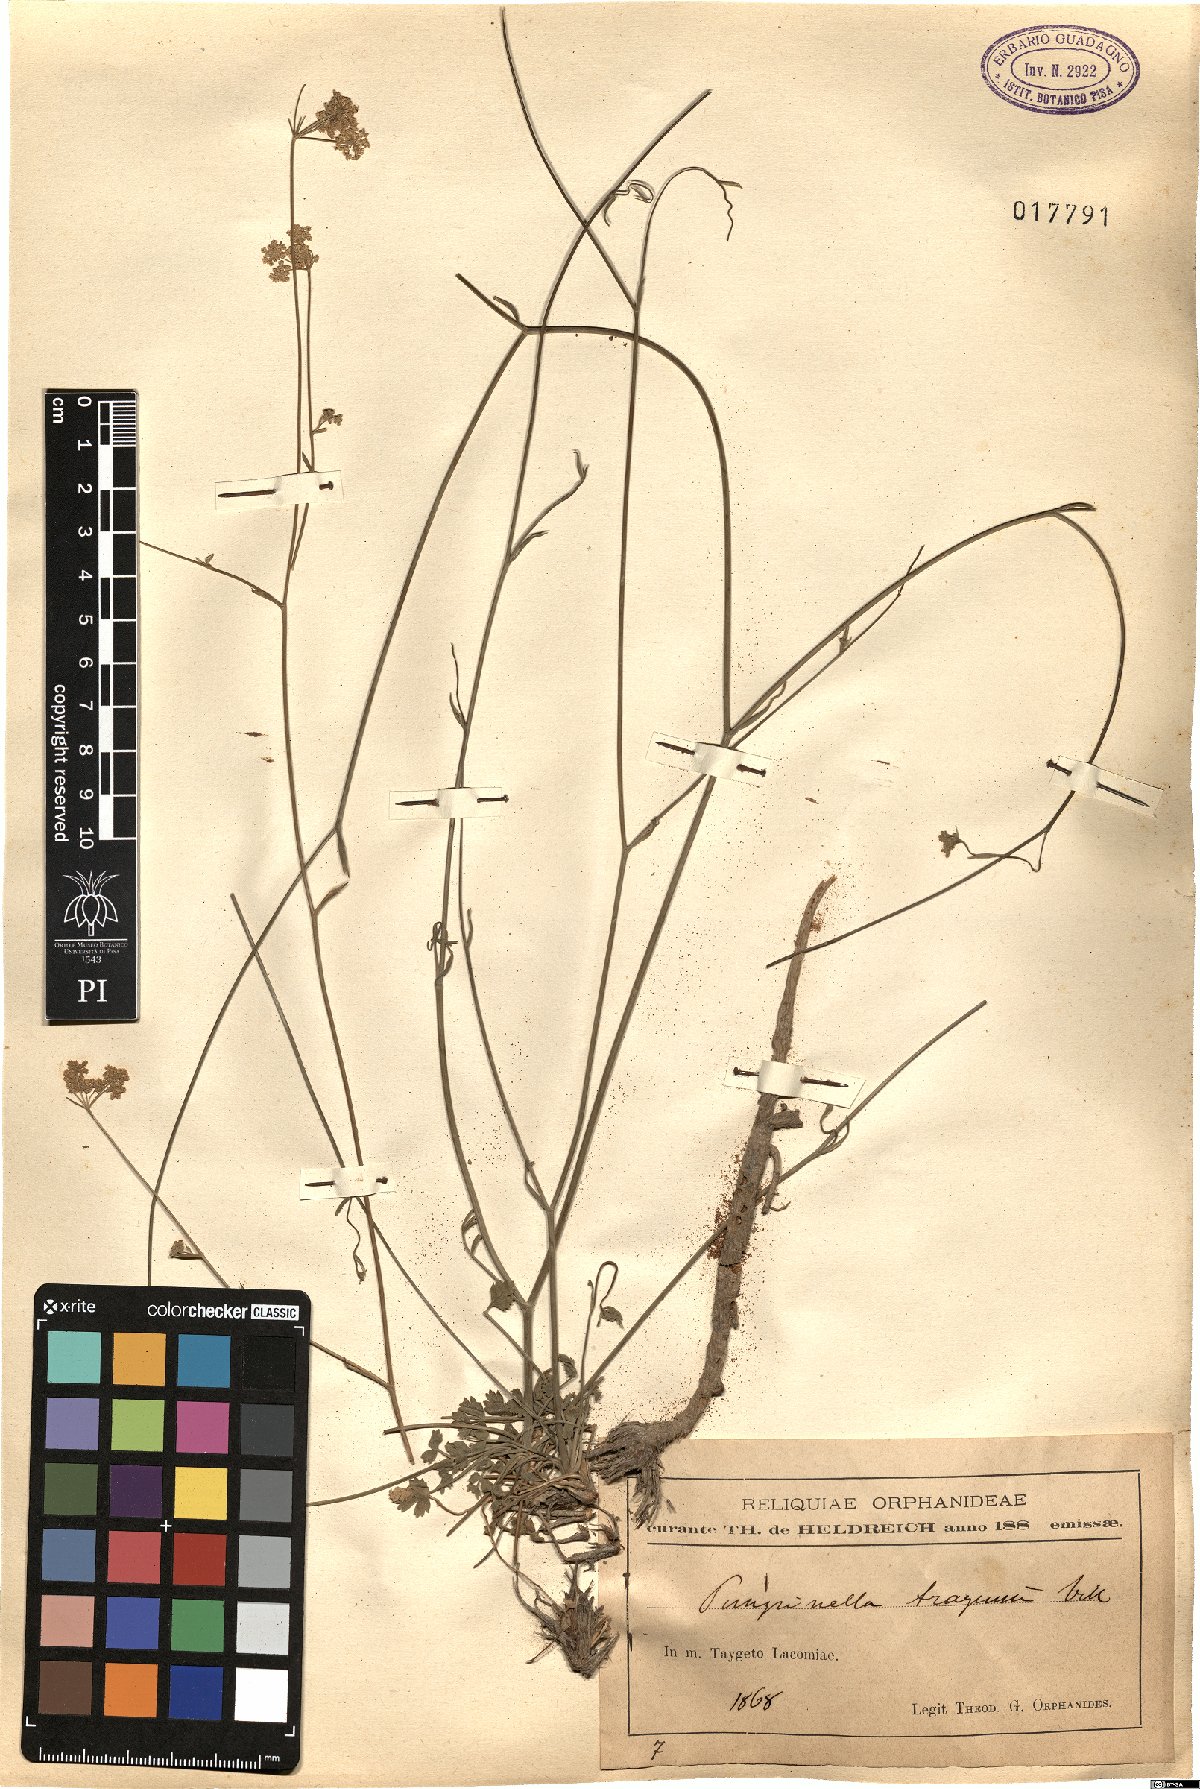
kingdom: Plantae
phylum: Tracheophyta
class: Magnoliopsida
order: Apiales
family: Apiaceae
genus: Pimpinella
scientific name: Pimpinella tragium
